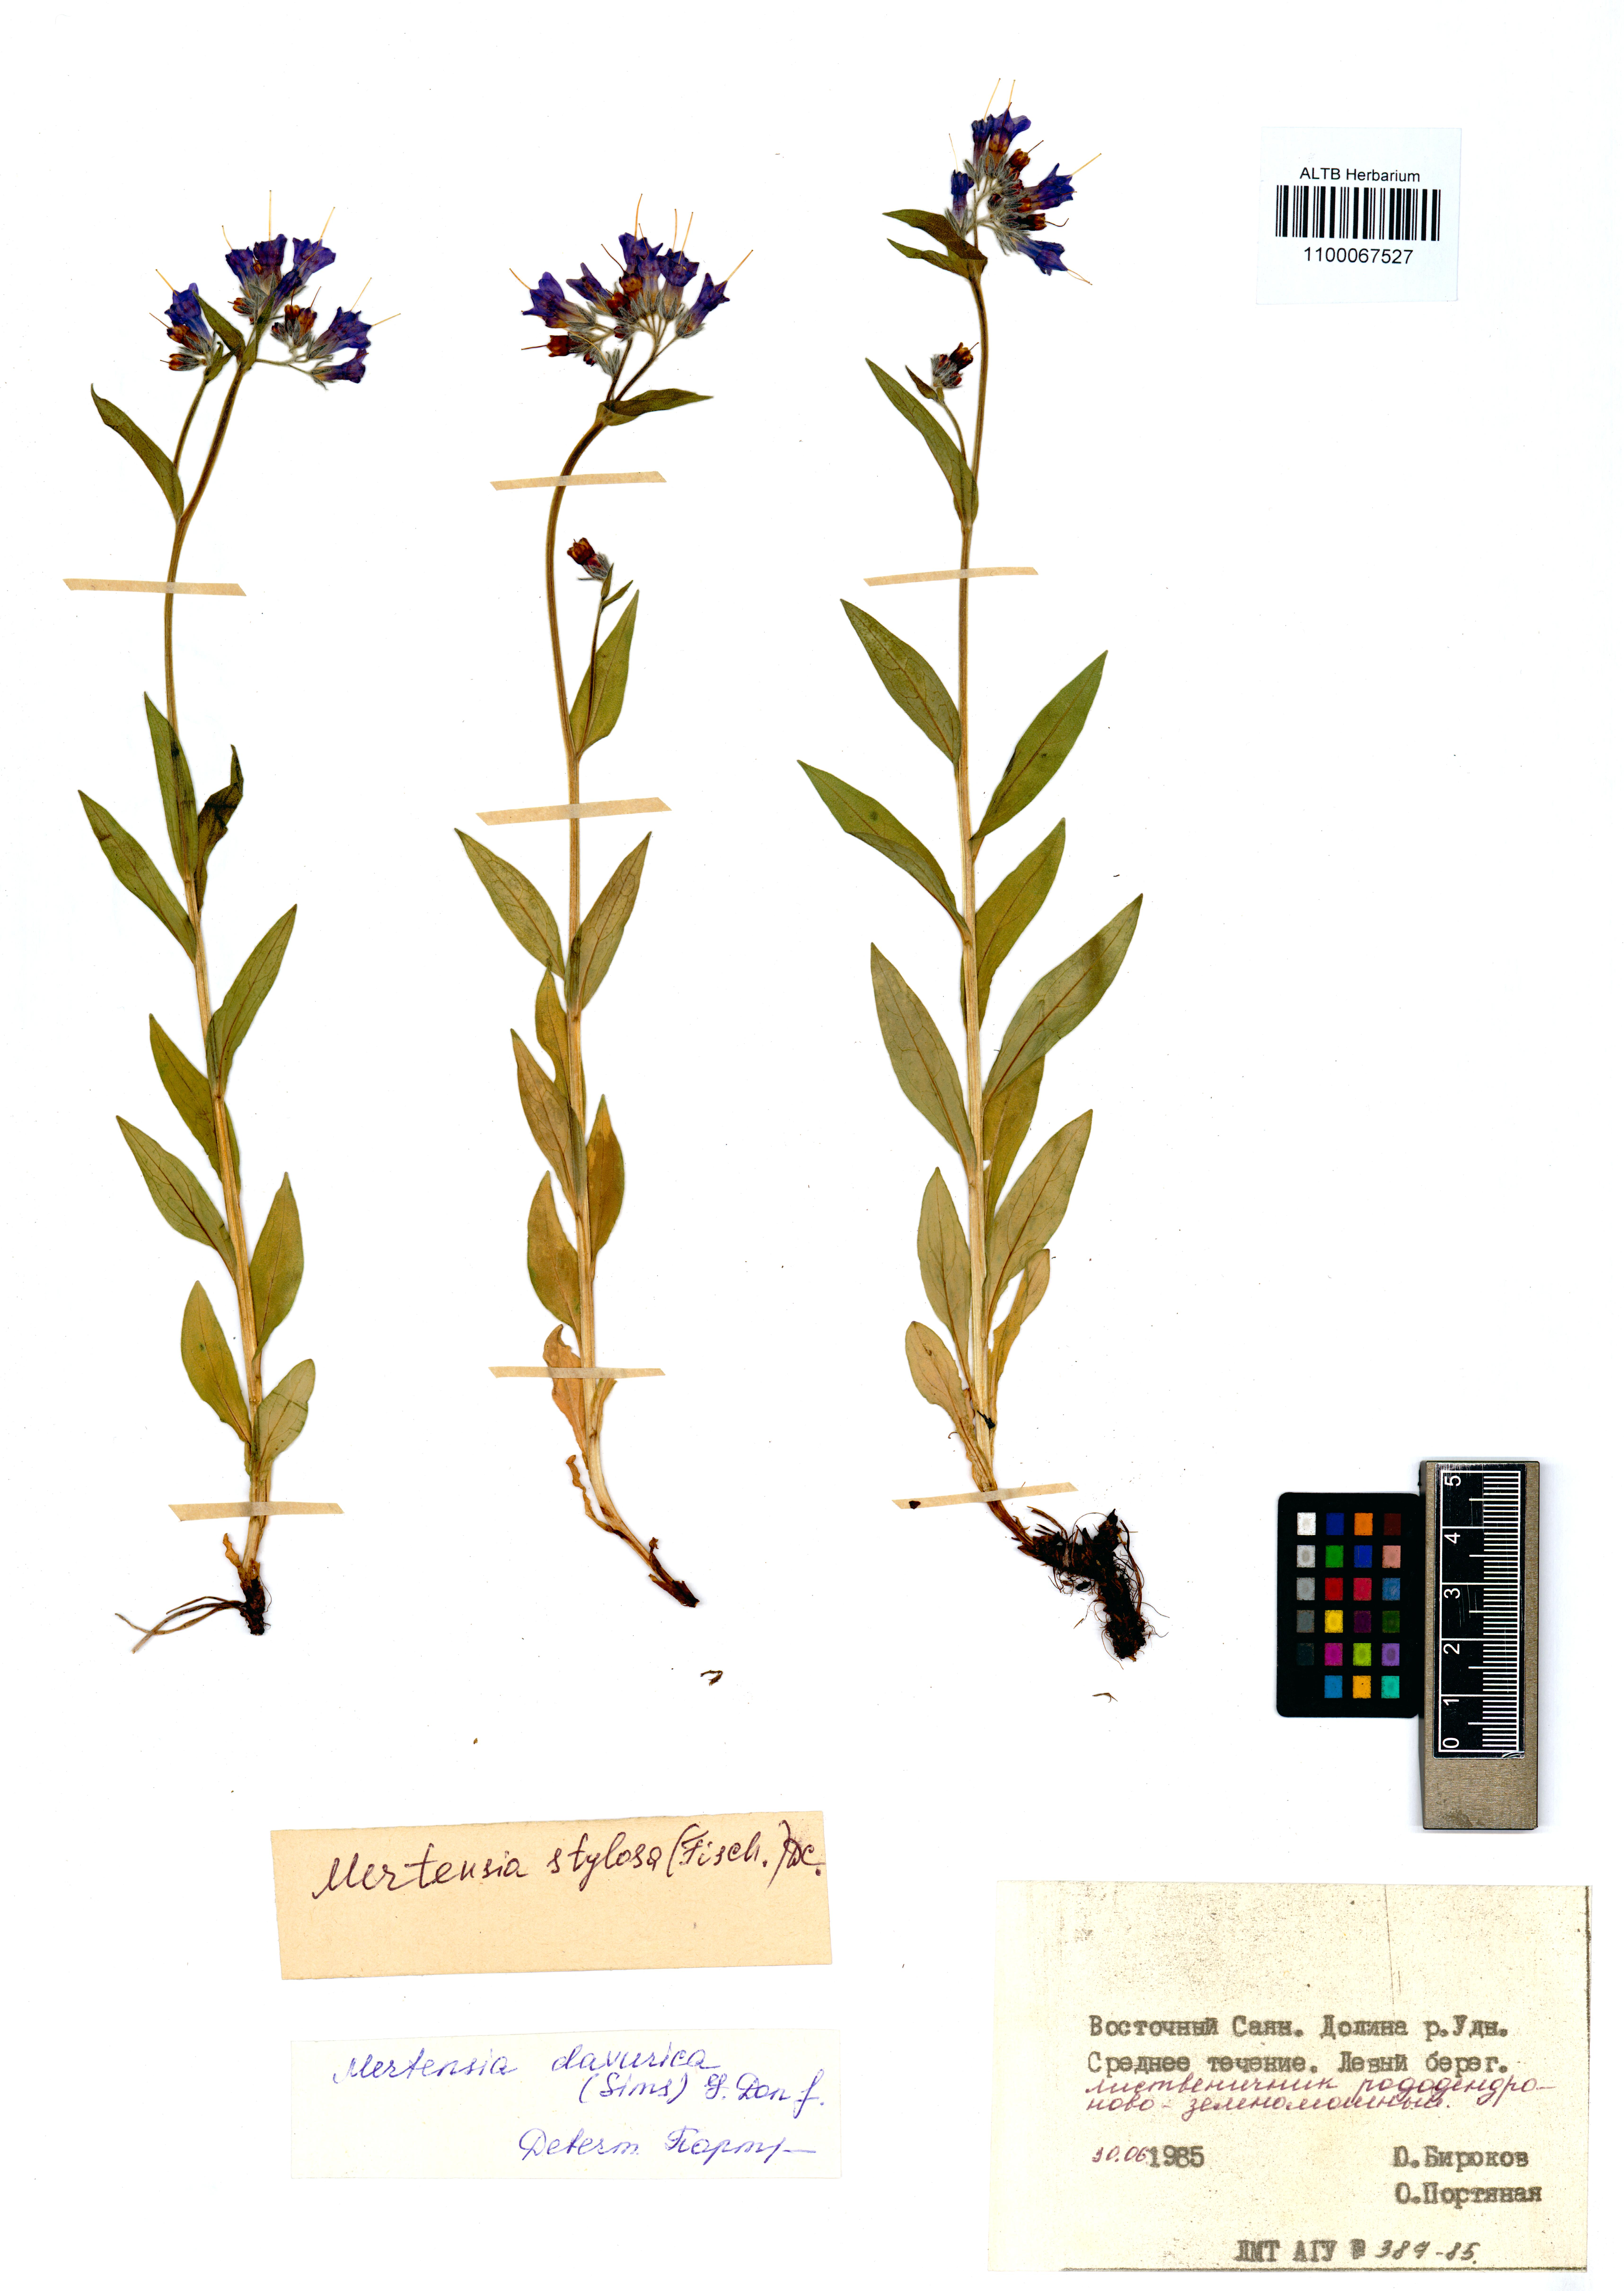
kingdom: Plantae
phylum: Tracheophyta
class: Magnoliopsida
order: Boraginales
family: Boraginaceae
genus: Mertensia
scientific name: Mertensia stylosa
